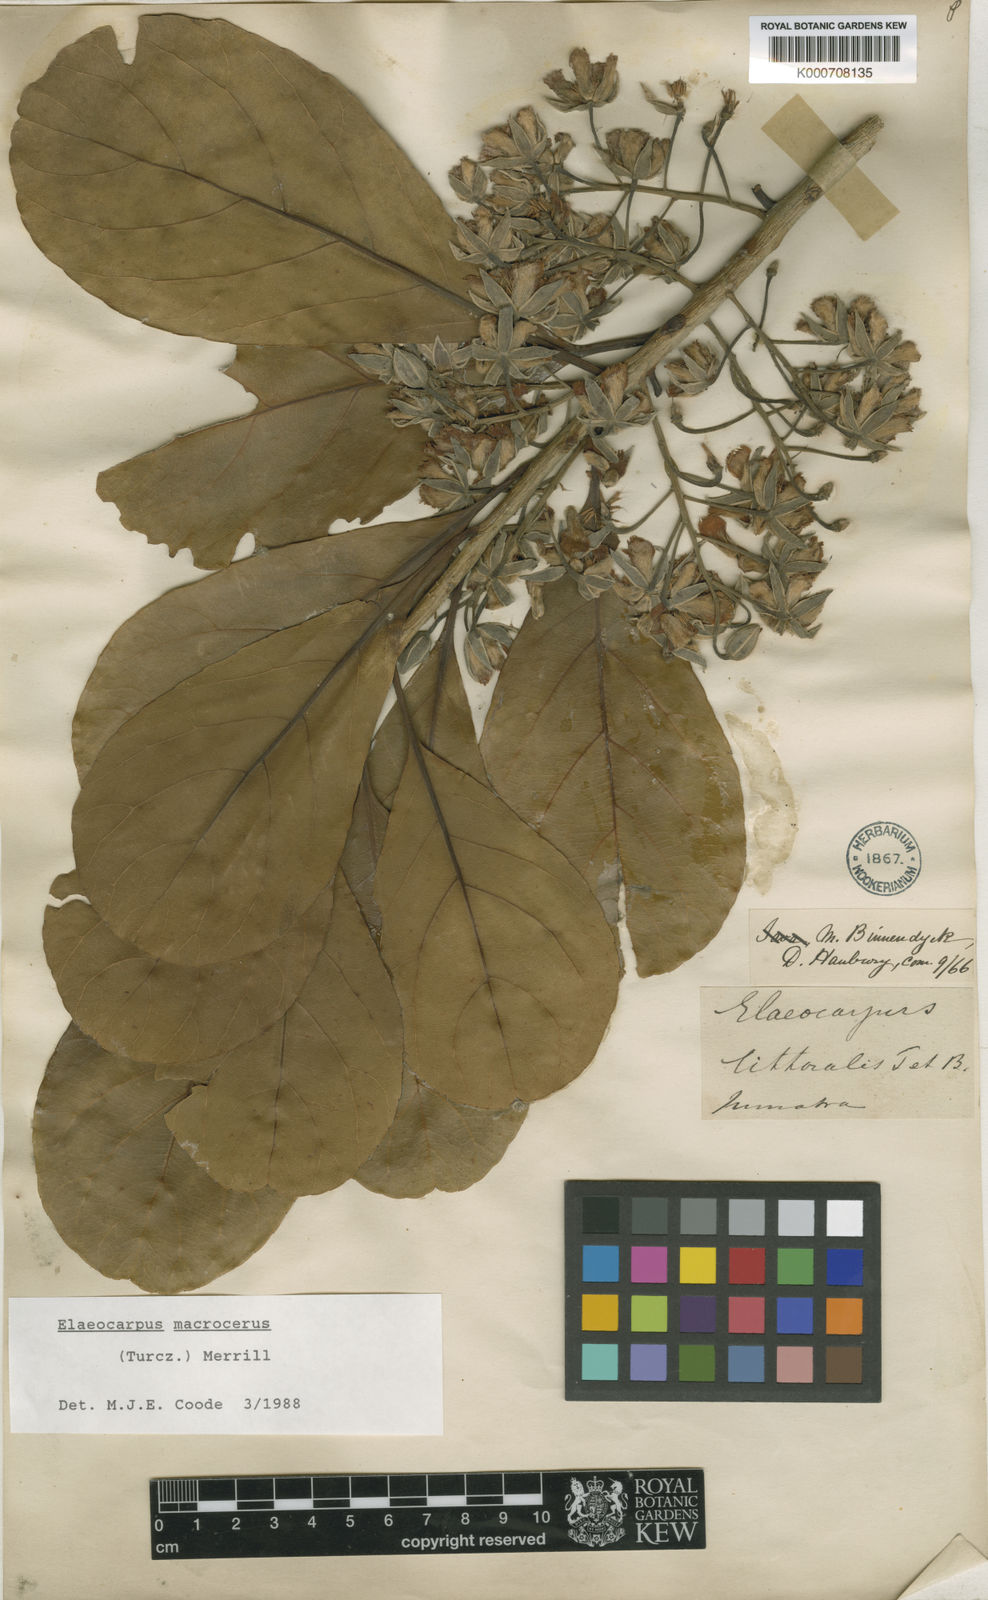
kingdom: Plantae
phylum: Tracheophyta
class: Magnoliopsida
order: Oxalidales
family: Elaeocarpaceae
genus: Elaeocarpus
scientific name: Elaeocarpus macrocerus
